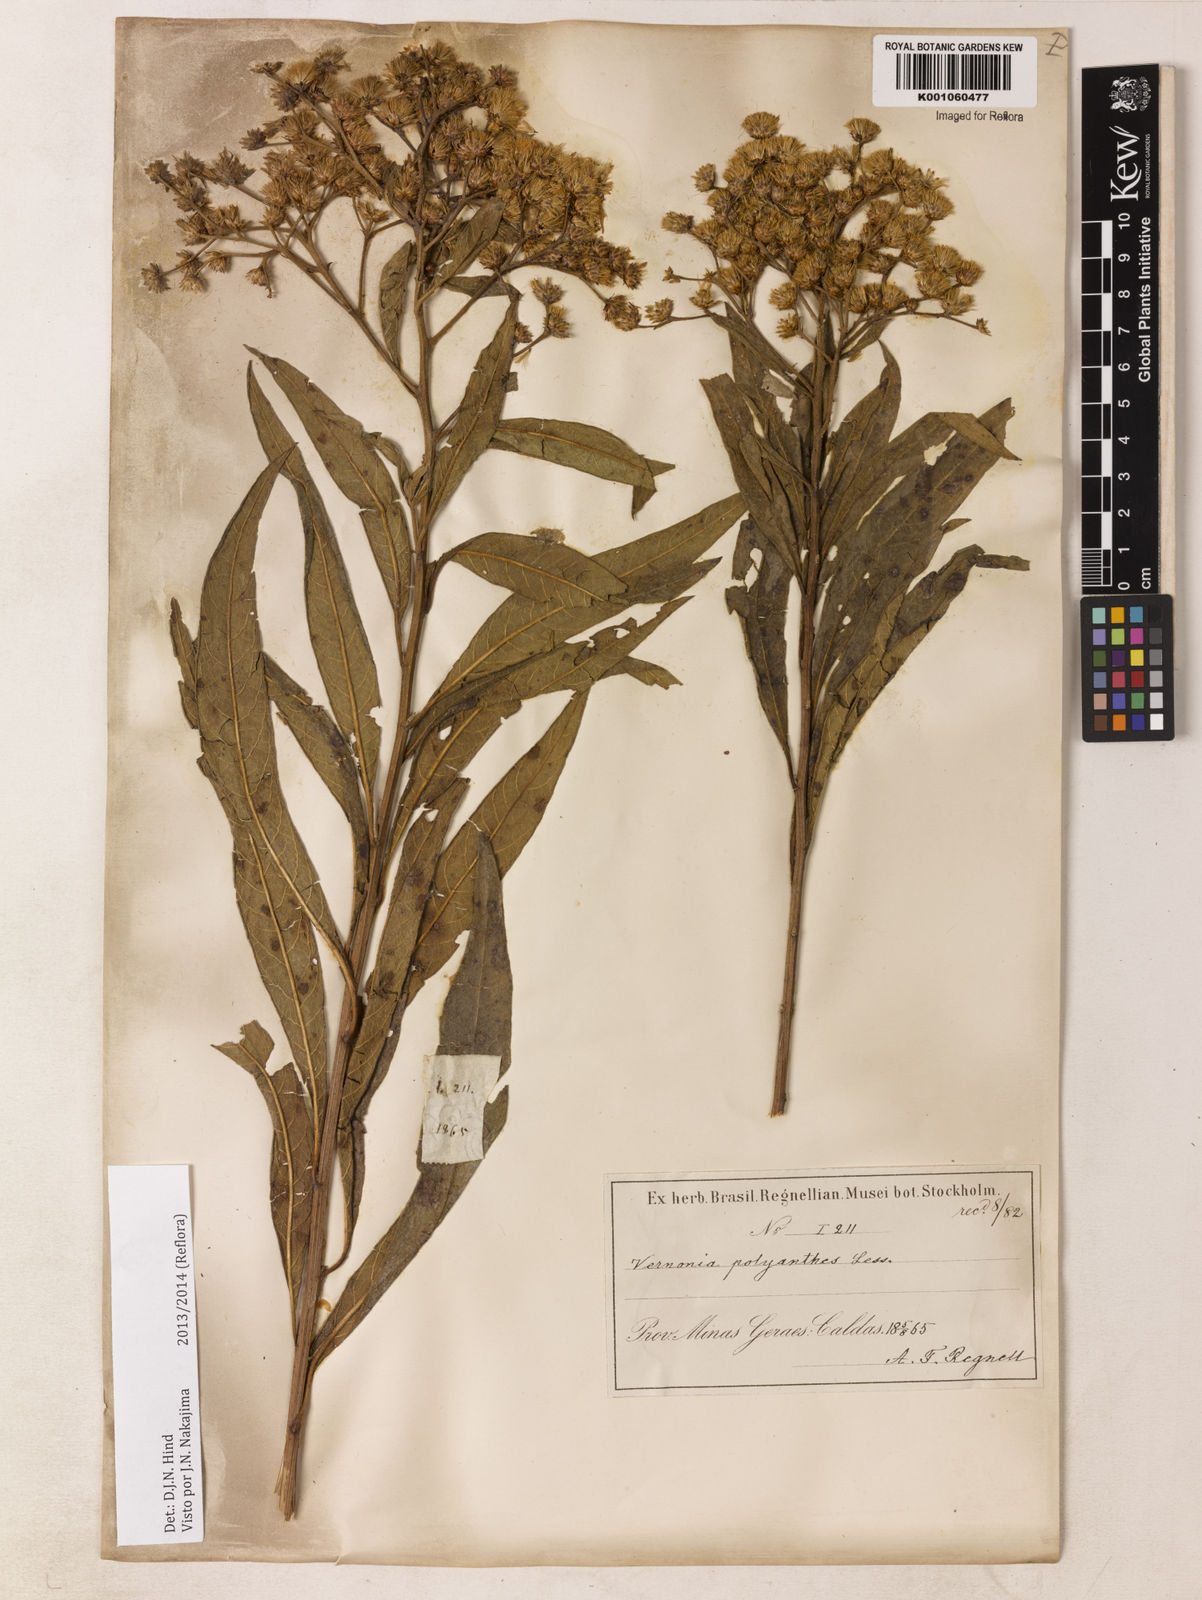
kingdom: Plantae
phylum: Tracheophyta
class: Magnoliopsida
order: Asterales
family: Asteraceae
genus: Vernonanthura
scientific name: Vernonanthura polyanthes
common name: Tree aster
